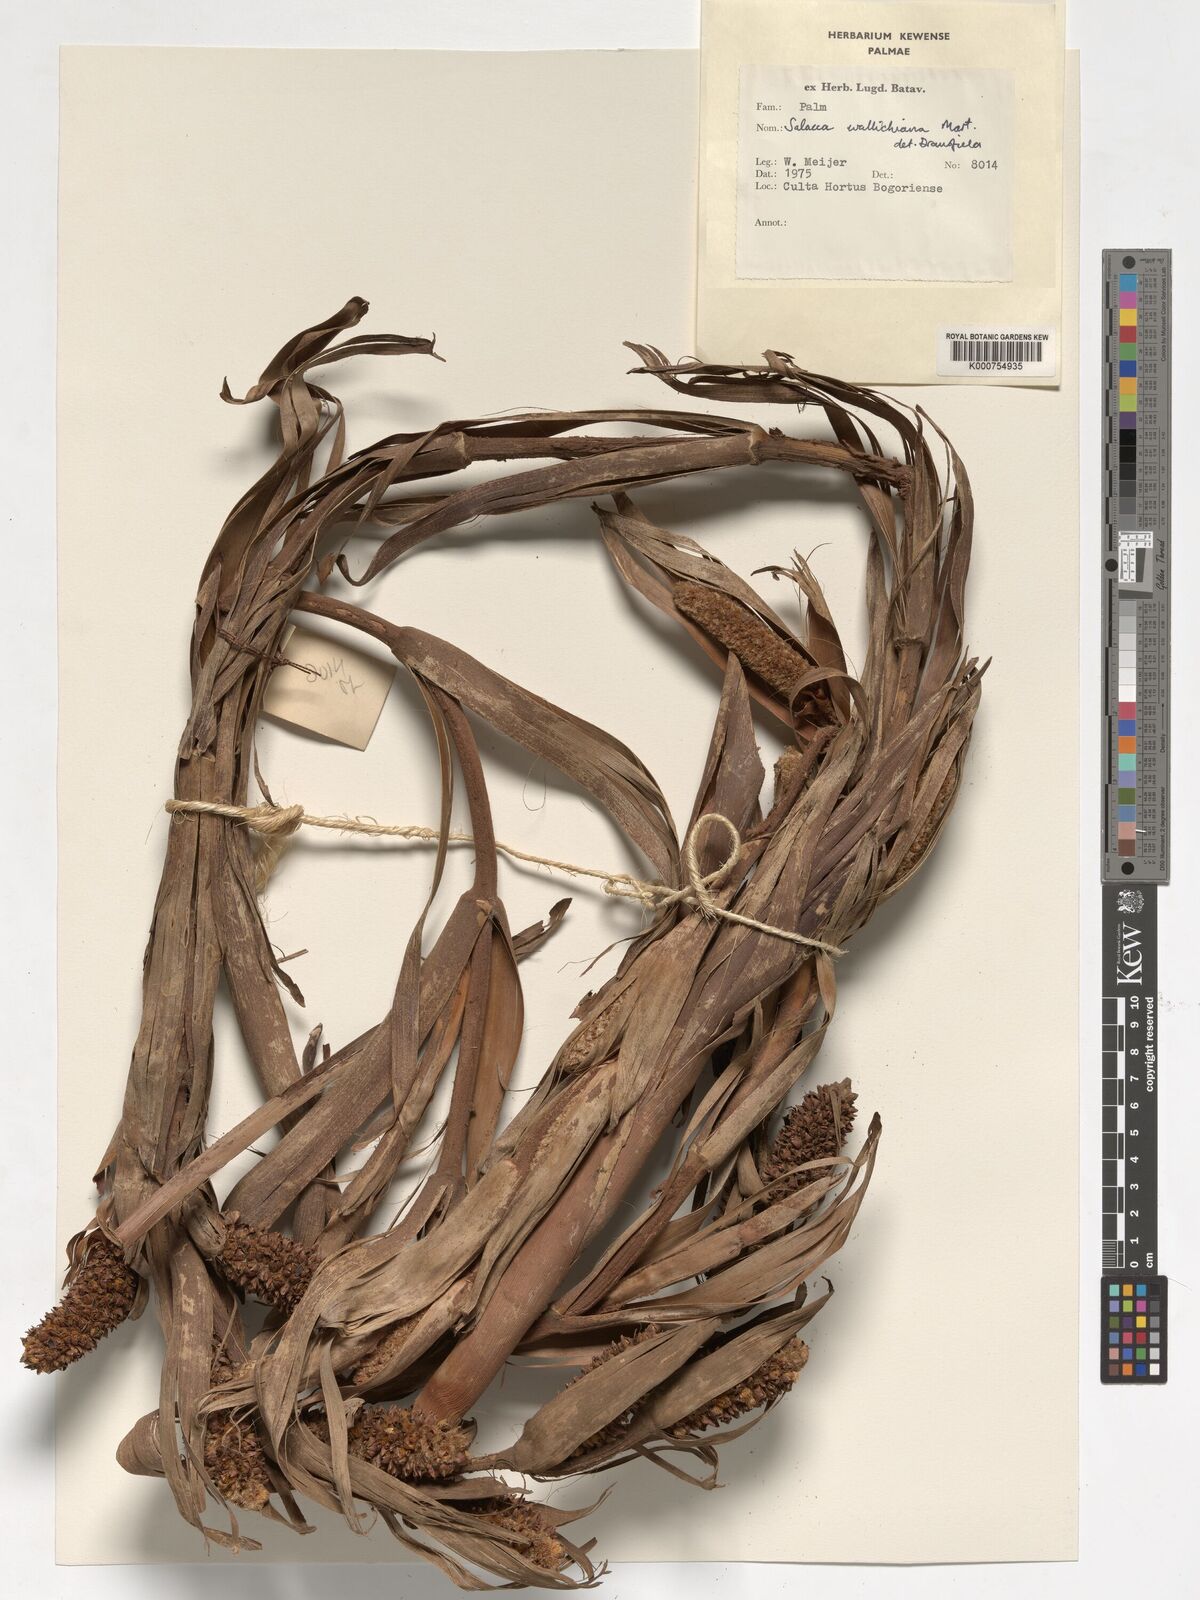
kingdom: Plantae
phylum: Tracheophyta
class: Liliopsida
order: Arecales
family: Arecaceae
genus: Salacca
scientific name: Salacca wallichiana
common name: Rakum palm
